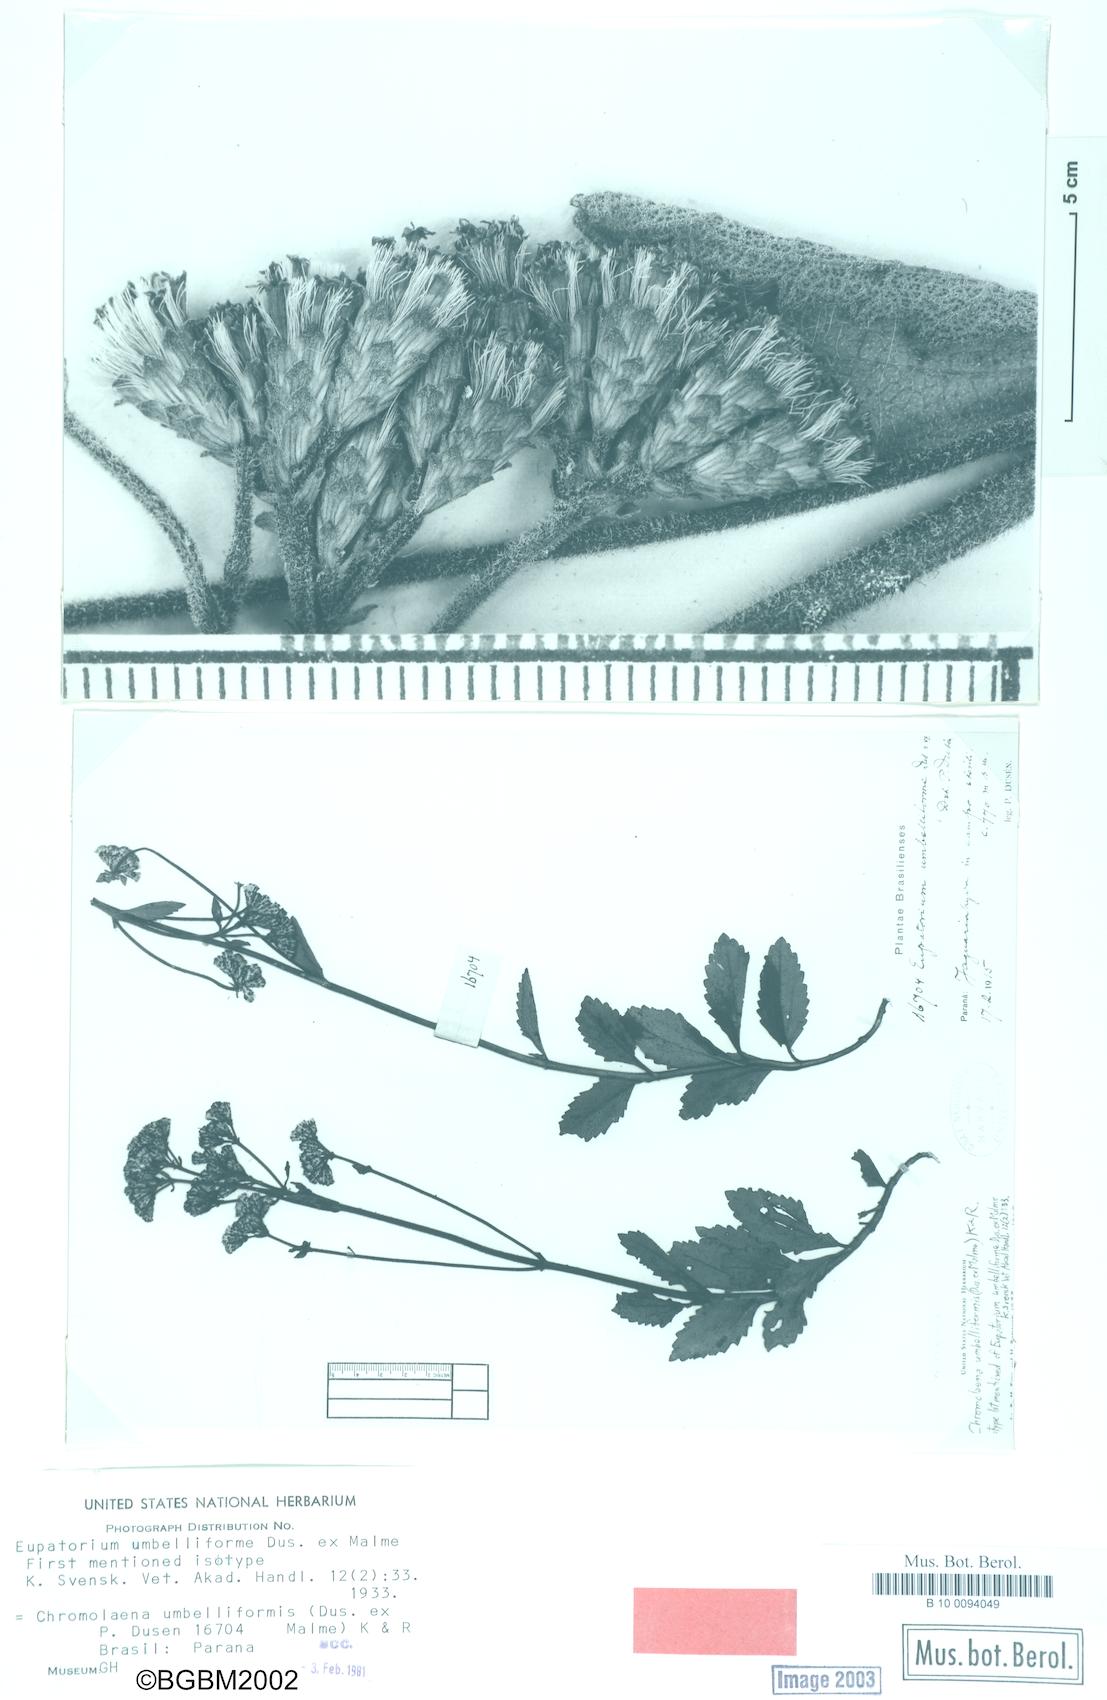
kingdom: Plantae
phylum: Tracheophyta
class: Magnoliopsida
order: Asterales
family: Asteraceae
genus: Chromolaena
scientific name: Chromolaena elliptica
